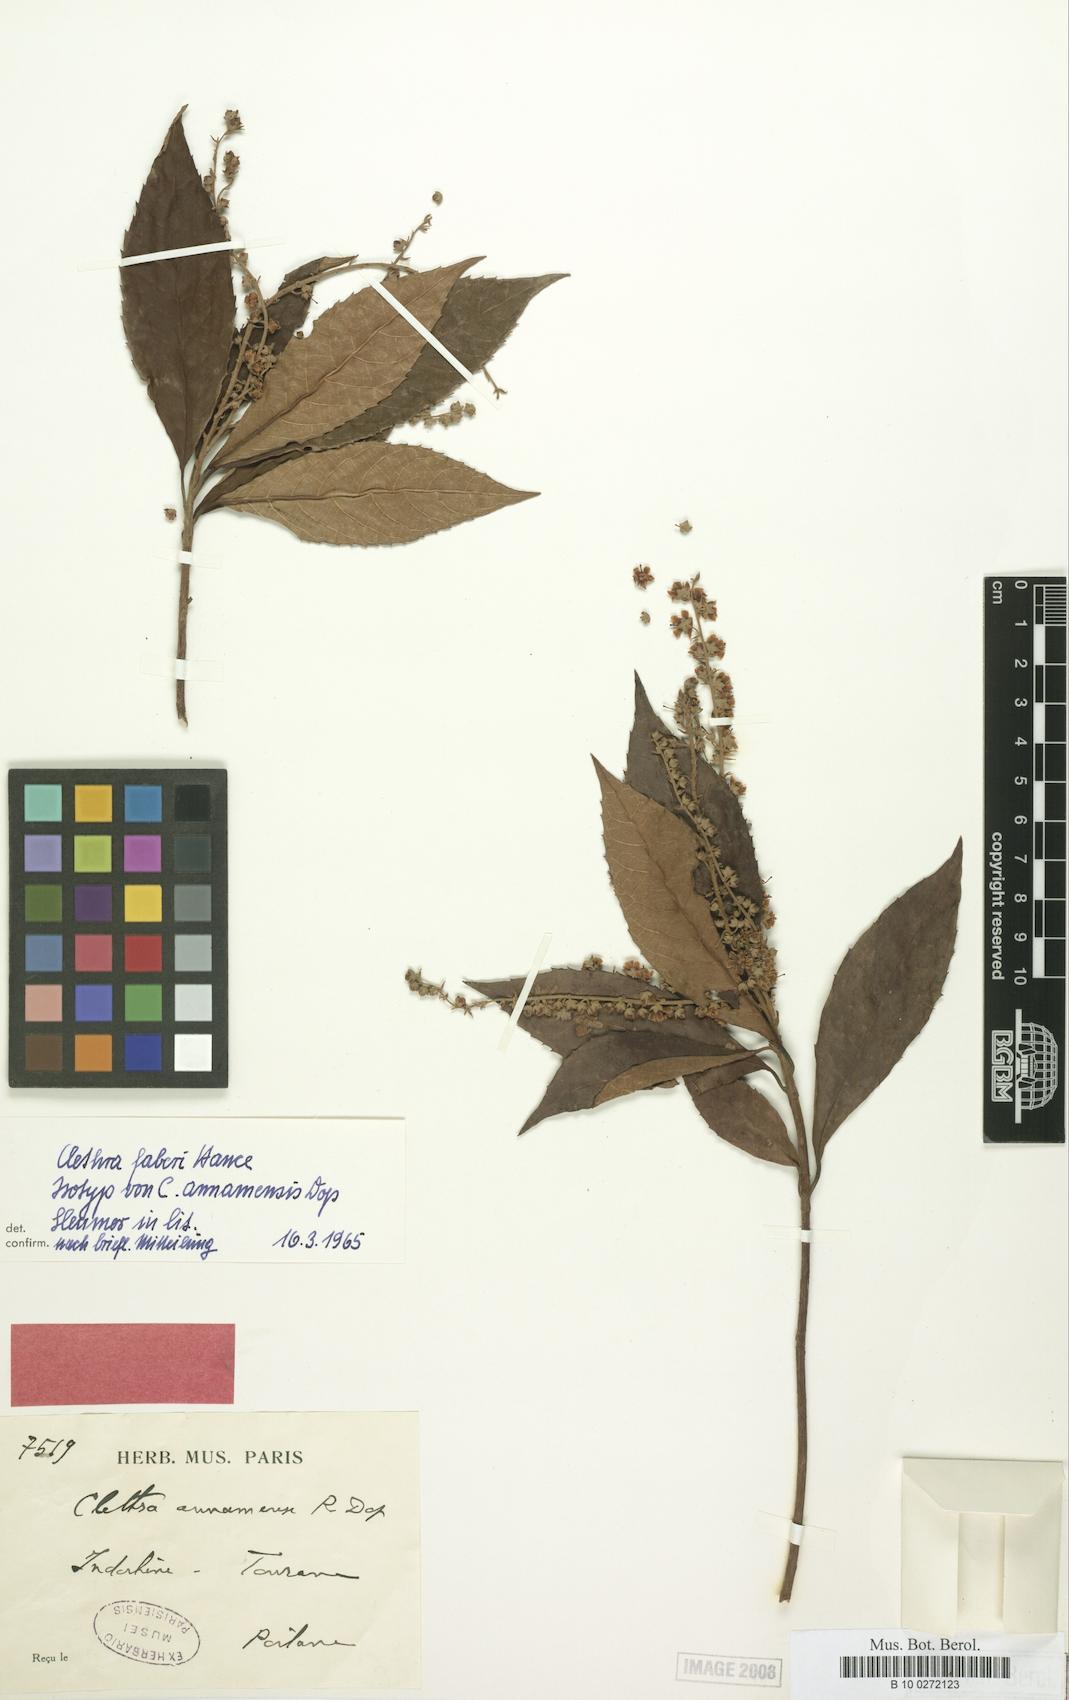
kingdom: Plantae
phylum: Tracheophyta
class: Magnoliopsida
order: Ericales
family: Clethraceae
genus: Clethra
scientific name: Clethra fabri
